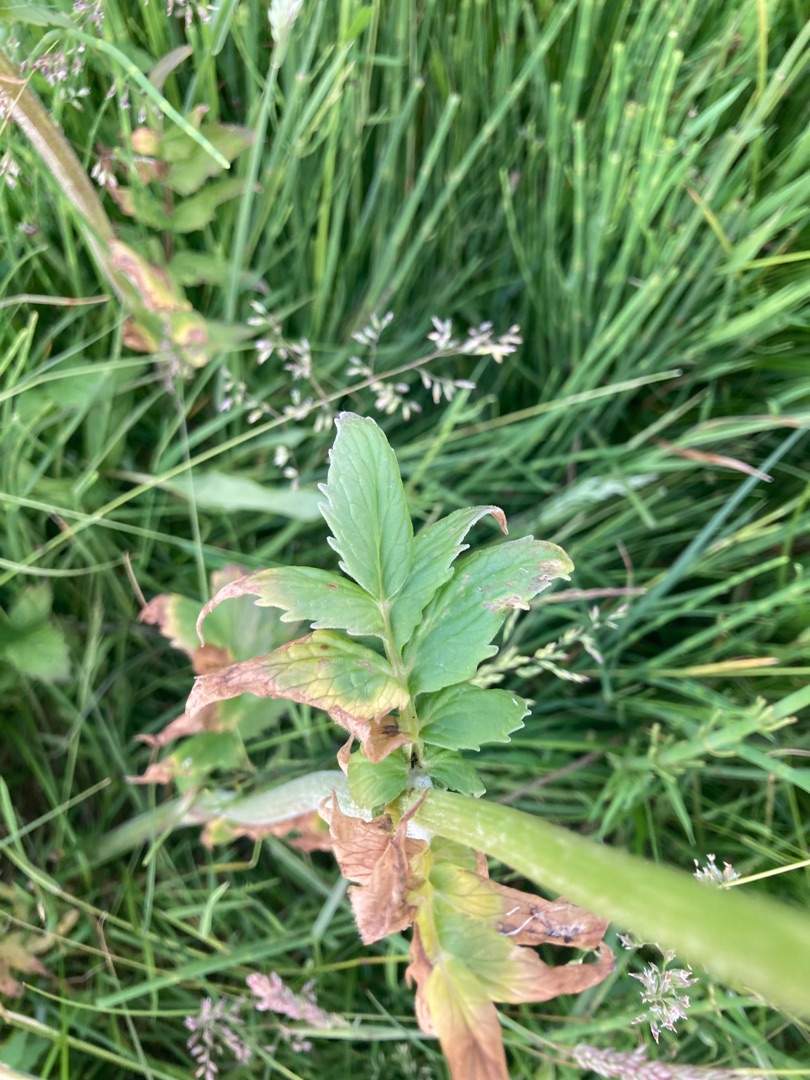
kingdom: Plantae
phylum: Tracheophyta
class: Magnoliopsida
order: Dipsacales
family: Caprifoliaceae
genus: Valeriana
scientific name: Valeriana sambucifolia
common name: Hyldebladet baldrian
